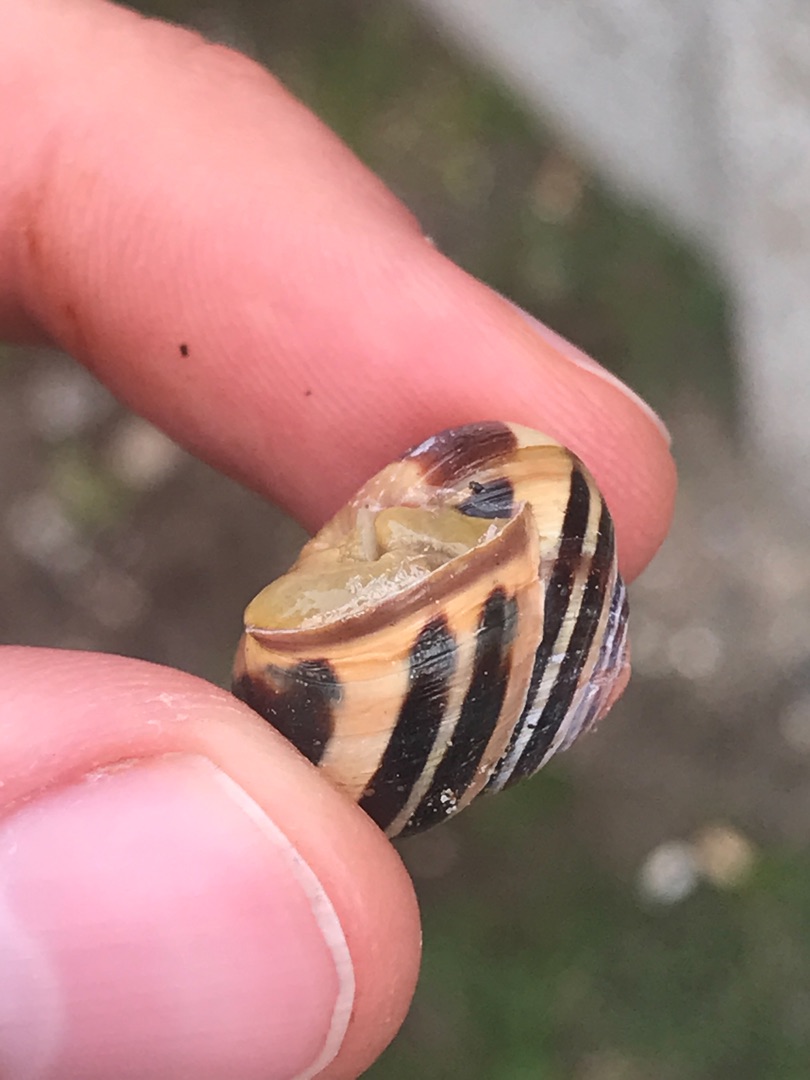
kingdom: Animalia
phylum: Mollusca
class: Gastropoda
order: Stylommatophora
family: Helicidae
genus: Cepaea
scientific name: Cepaea nemoralis
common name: Lundsnegl
